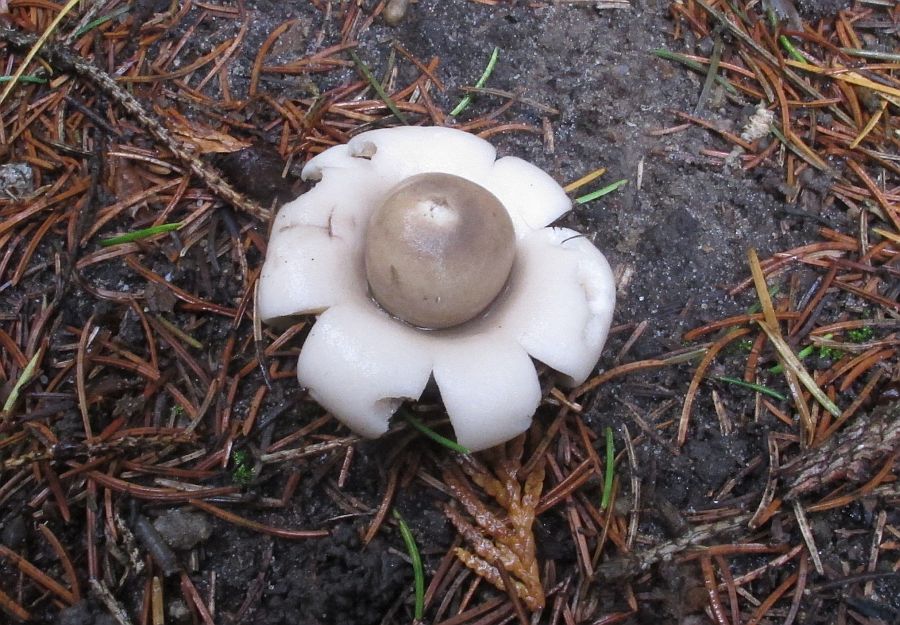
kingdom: Fungi
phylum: Basidiomycota
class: Agaricomycetes
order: Geastrales
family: Geastraceae
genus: Geastrum
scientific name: Geastrum fimbriatum
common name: frynset stjernebold
